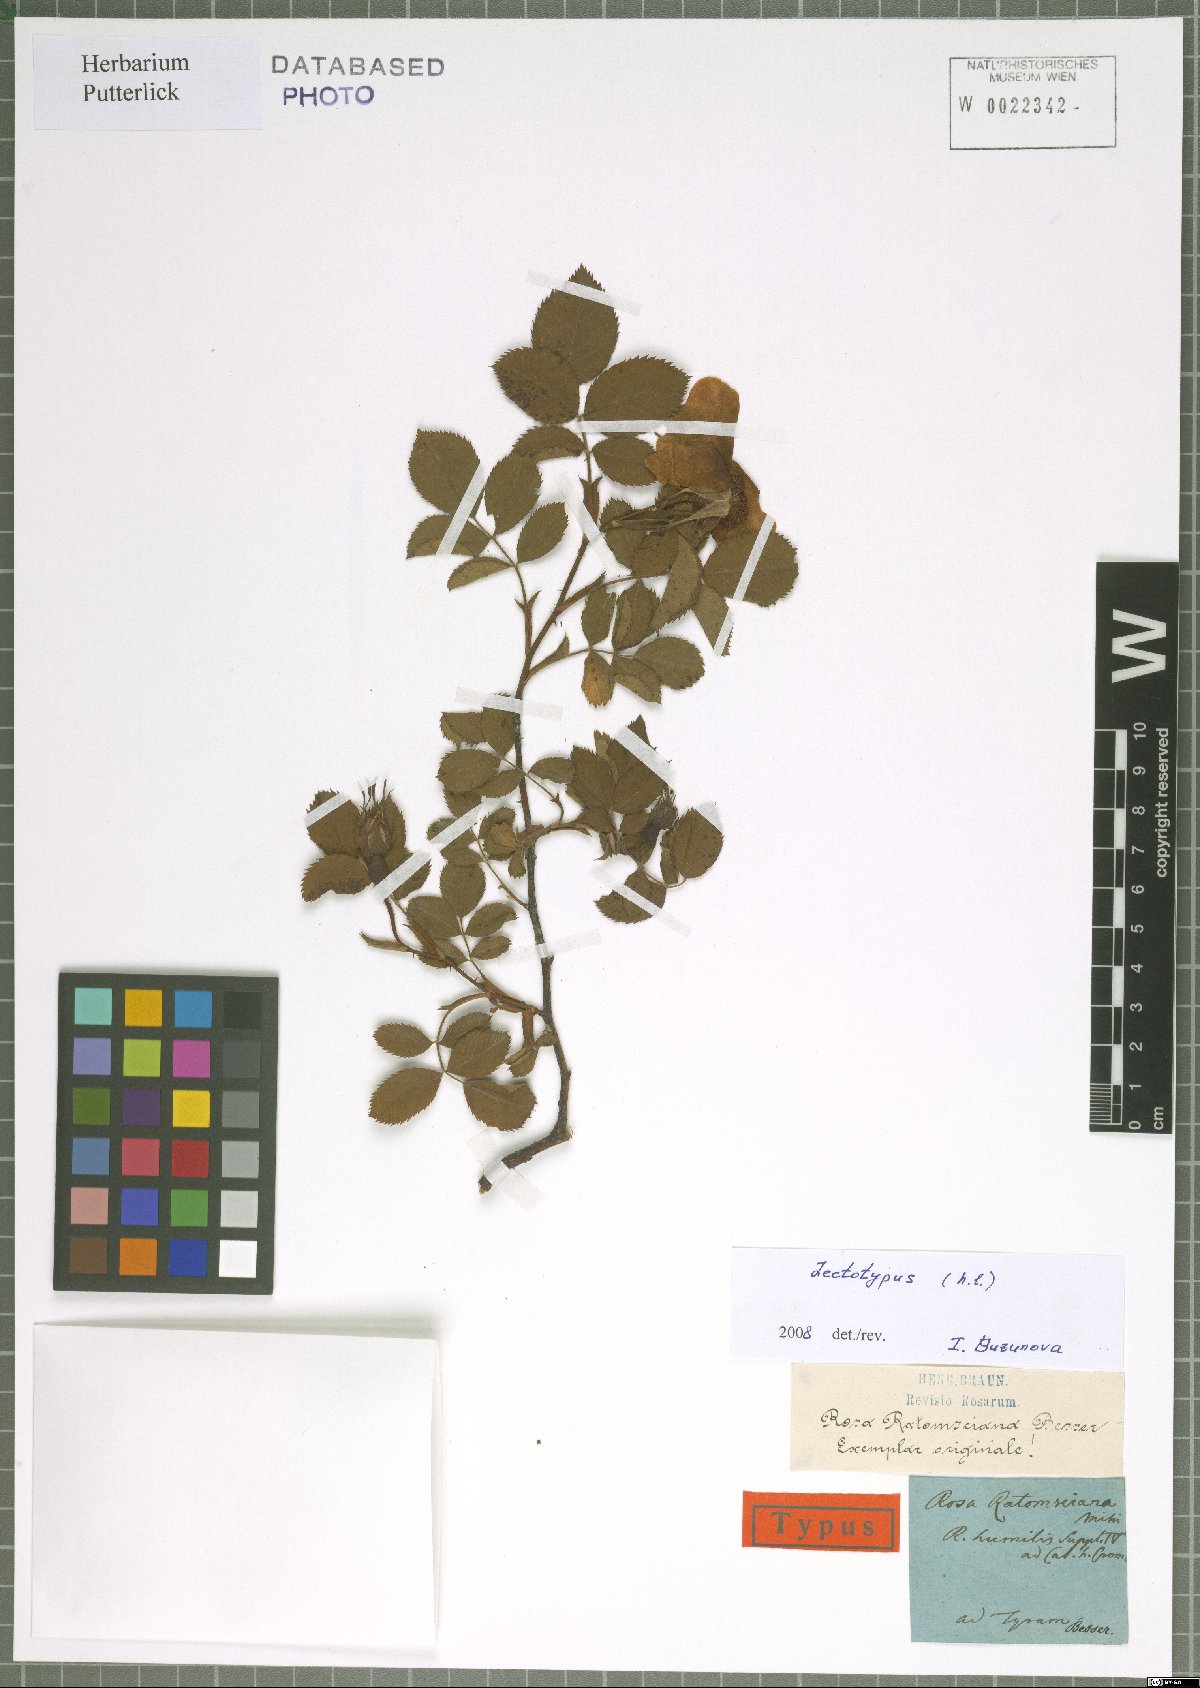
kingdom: Plantae
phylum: Tracheophyta
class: Magnoliopsida
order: Rosales
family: Rosaceae
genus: Rosa
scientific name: Rosa boreykiana
